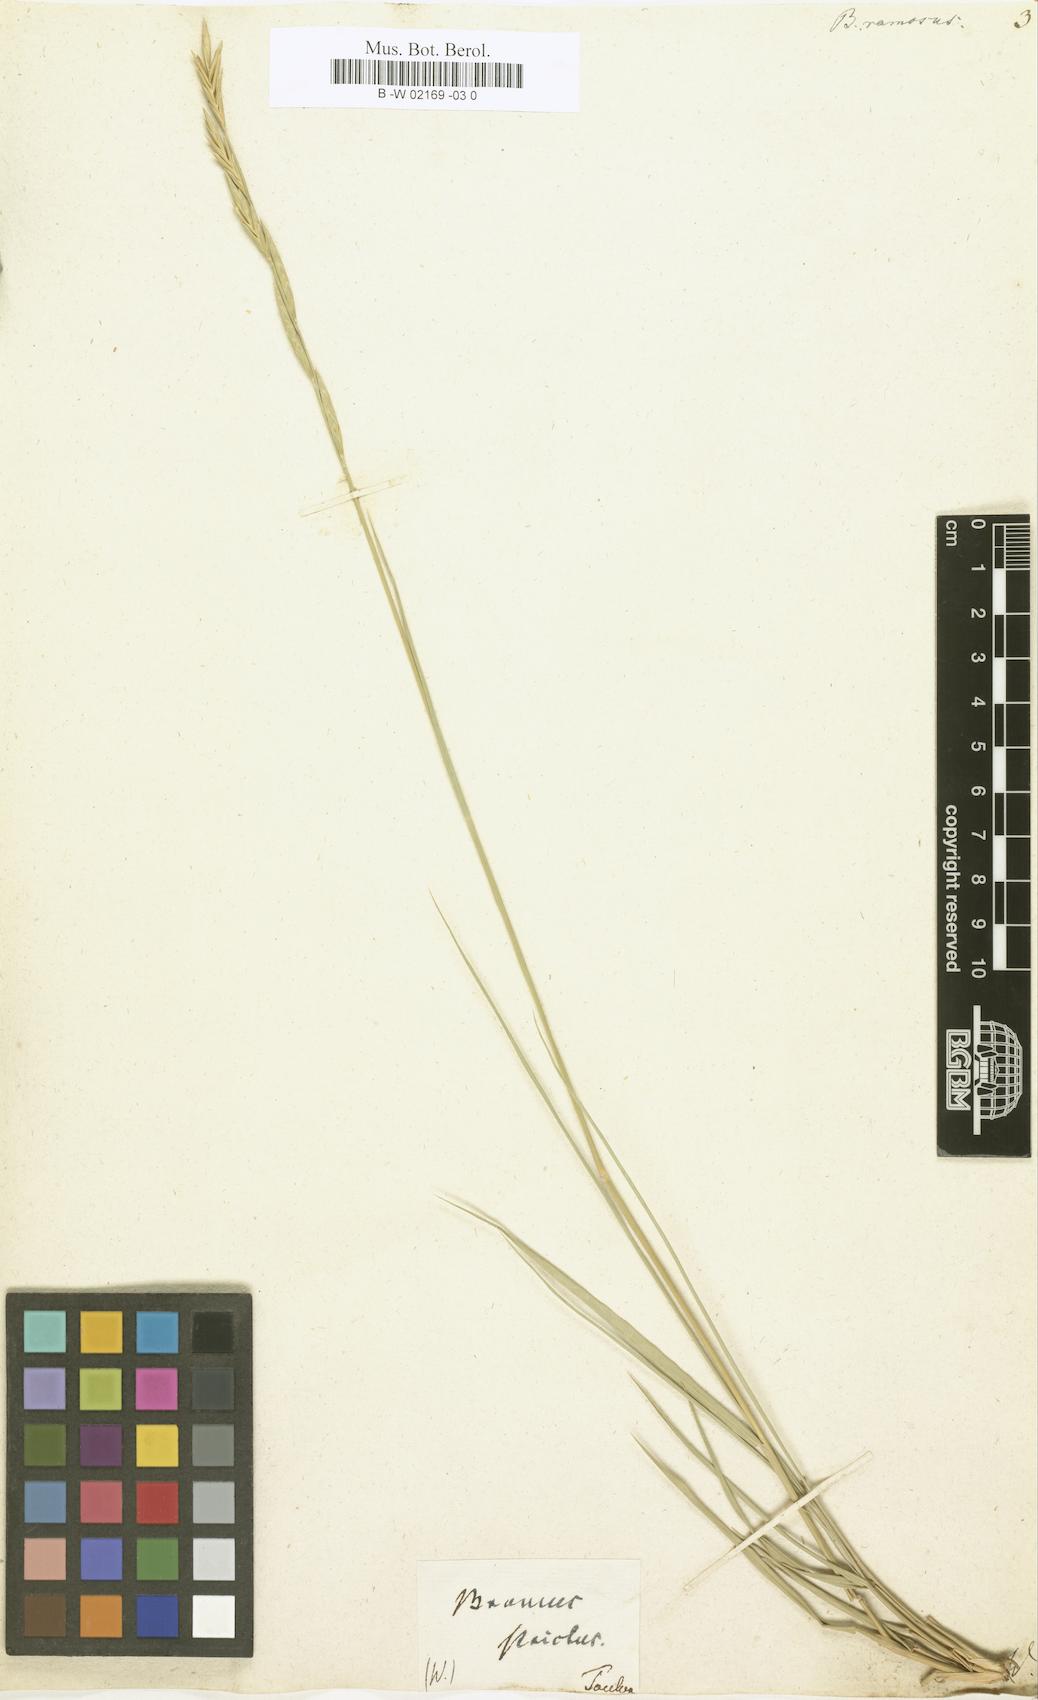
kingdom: Plantae
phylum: Tracheophyta
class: Liliopsida
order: Poales
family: Poaceae
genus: Bromus
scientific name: Bromus ramosus
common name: Hairy brome
